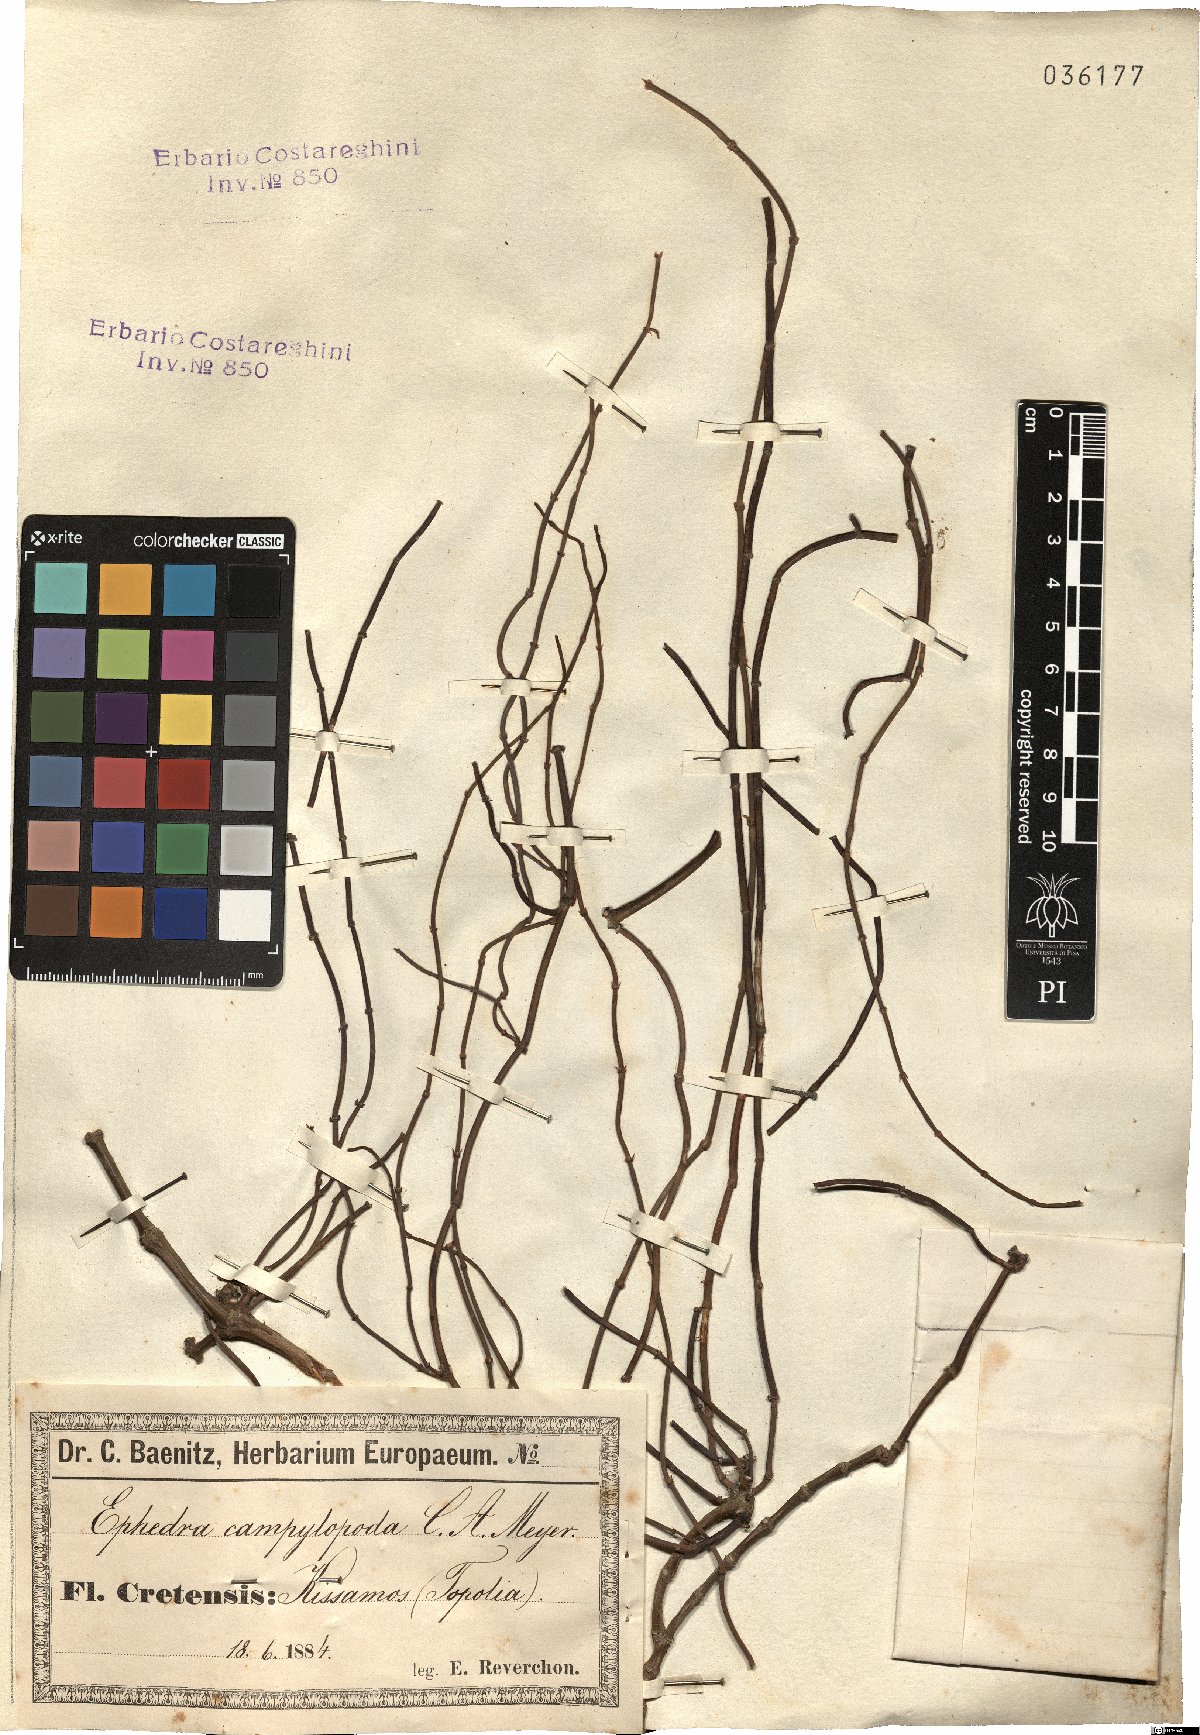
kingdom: Plantae
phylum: Tracheophyta
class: Gnetopsida
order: Ephedrales
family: Ephedraceae
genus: Ephedra
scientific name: Ephedra foeminea
